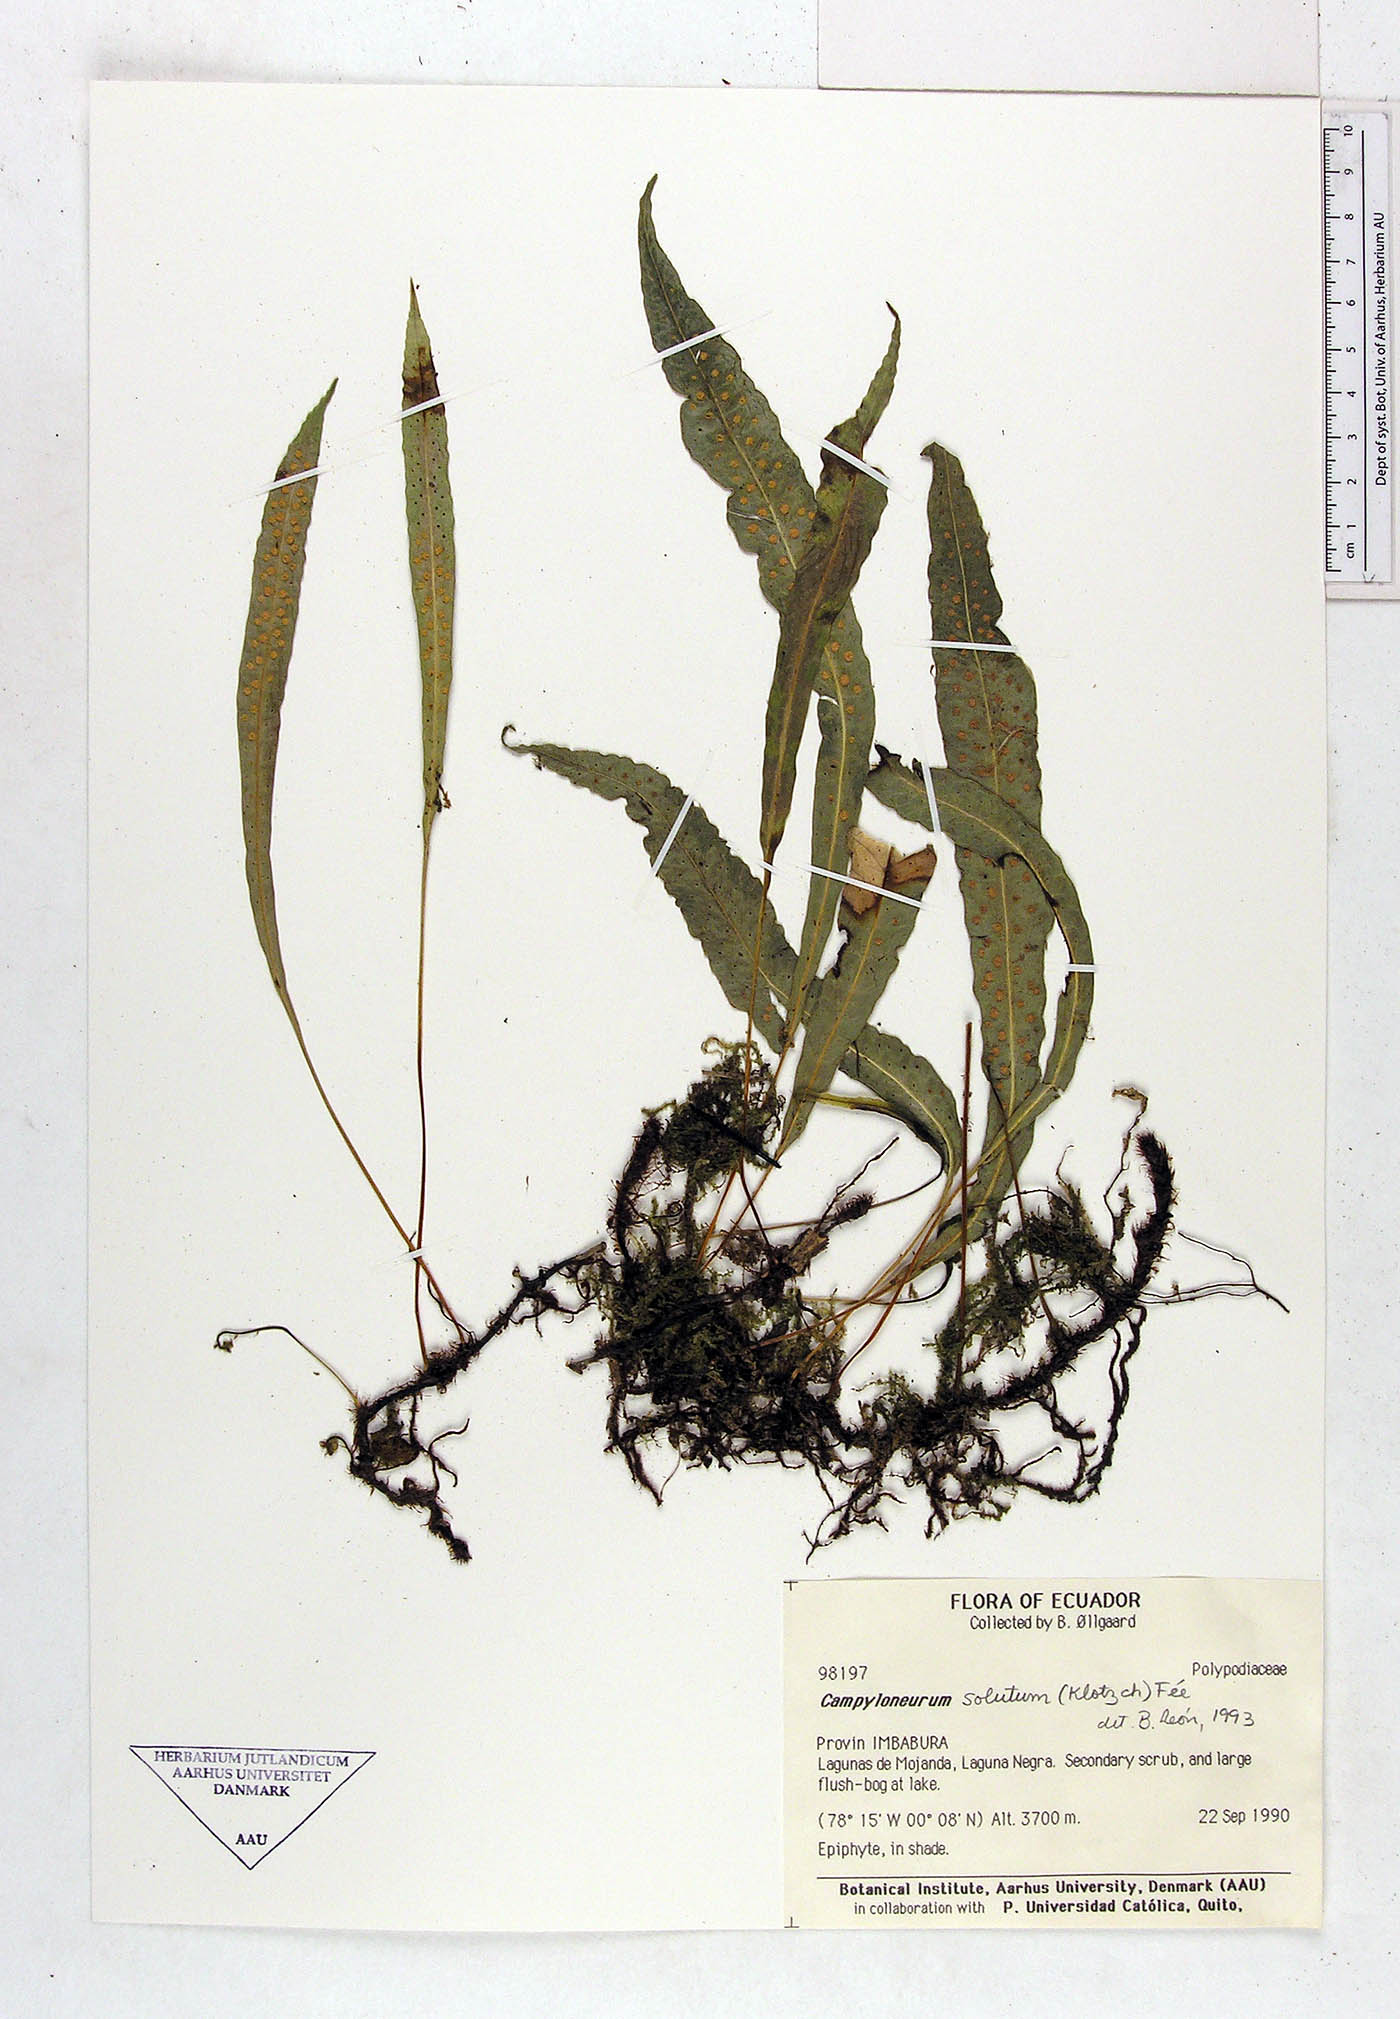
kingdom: Plantae
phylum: Tracheophyta
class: Polypodiopsida
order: Polypodiales
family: Polypodiaceae
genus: Campyloneurum
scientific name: Campyloneurum solutum
